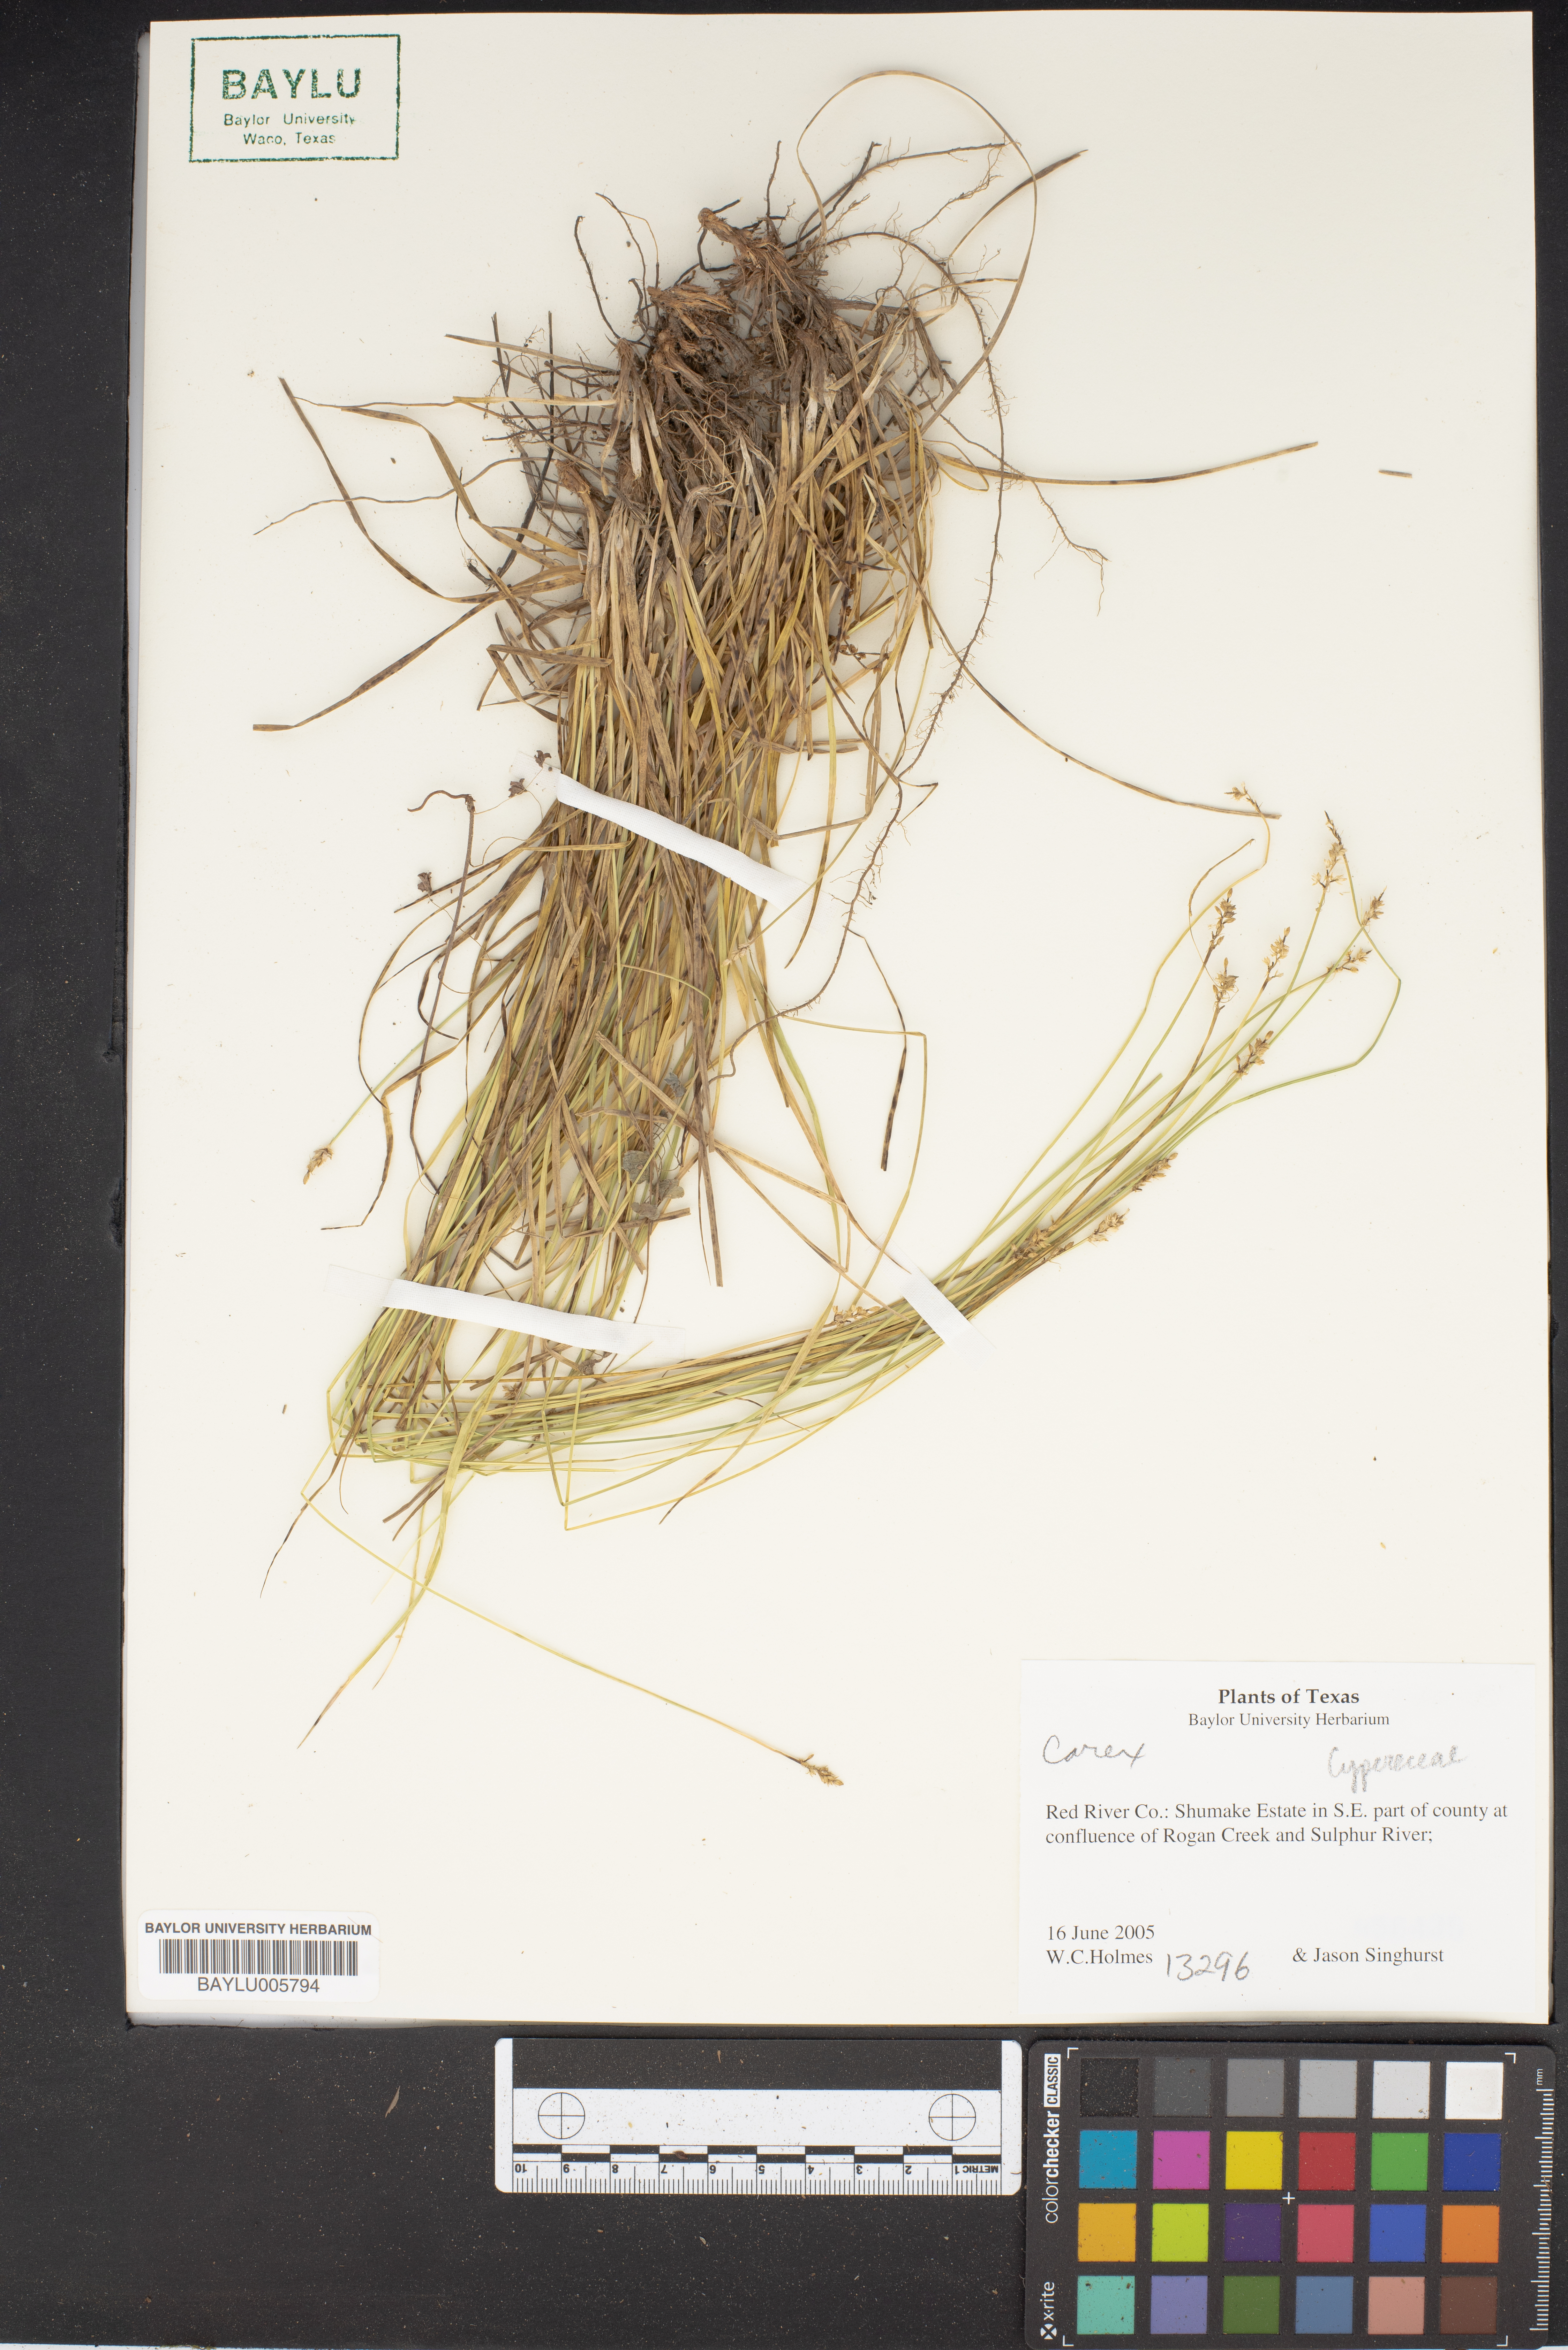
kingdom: Plantae
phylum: Tracheophyta
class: Liliopsida
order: Poales
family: Cyperaceae
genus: Carex
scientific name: Carex
